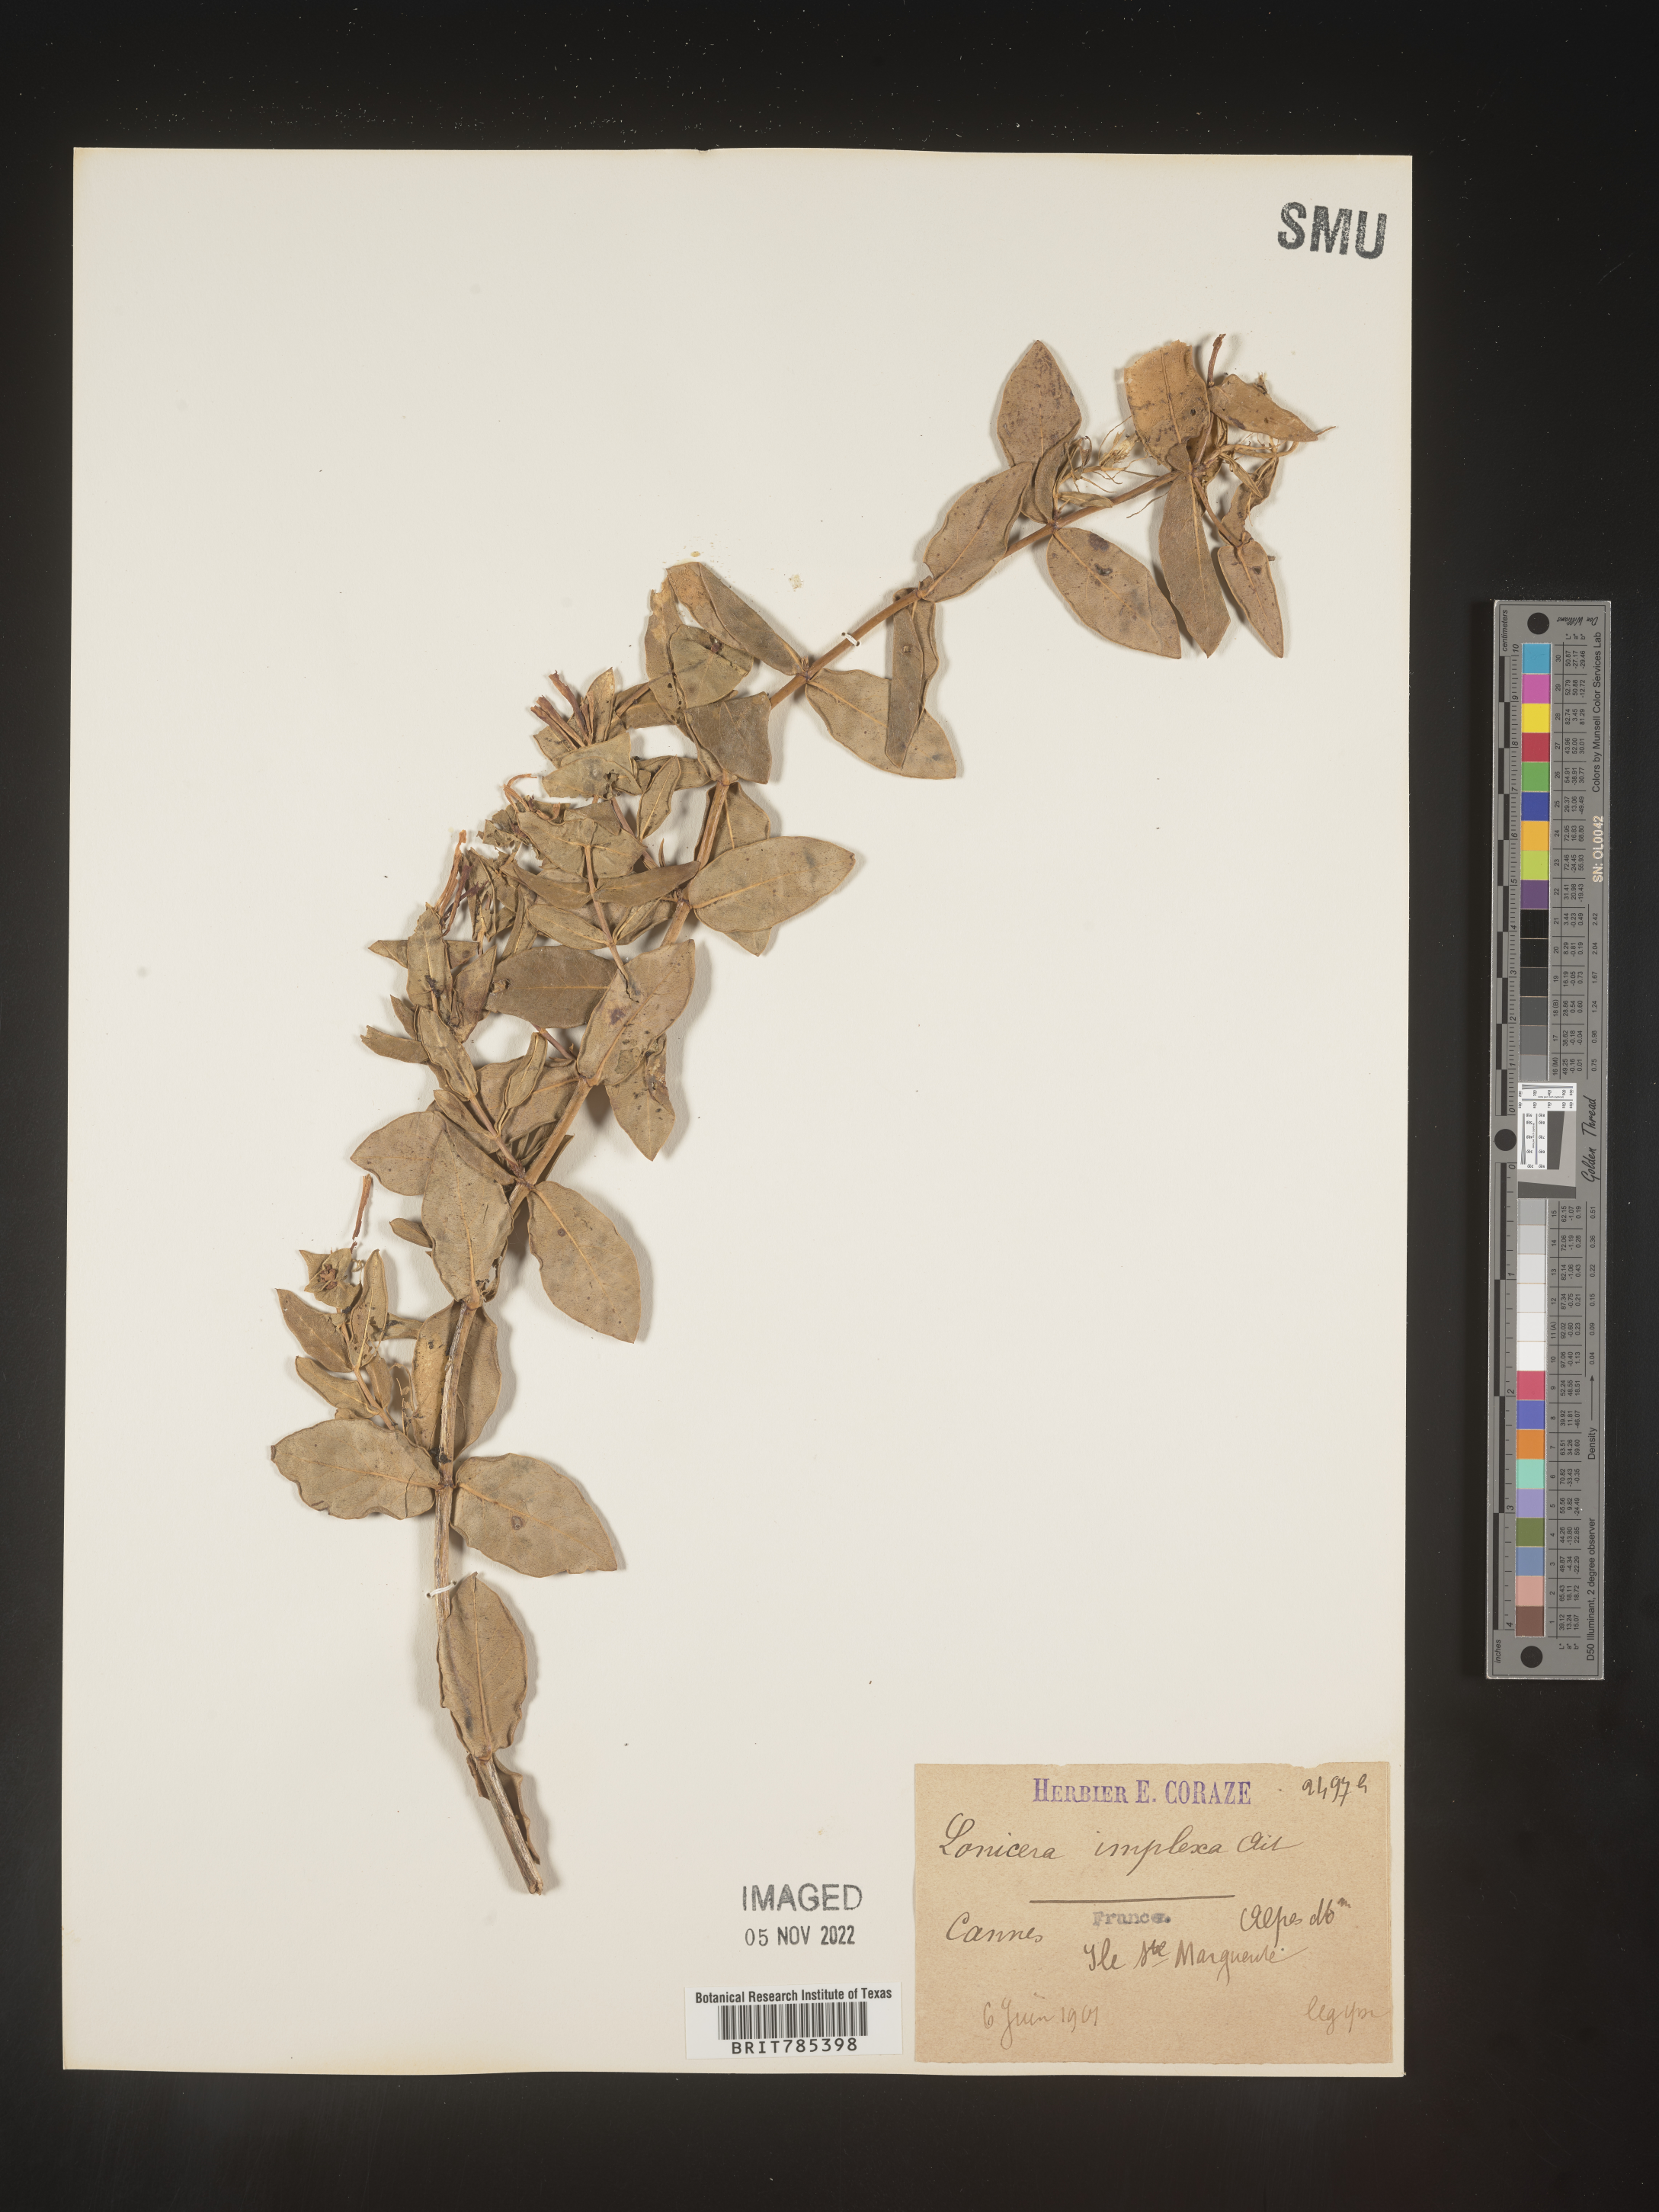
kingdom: Plantae
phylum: Tracheophyta
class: Magnoliopsida
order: Dipsacales
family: Caprifoliaceae
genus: Lonicera
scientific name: Lonicera
